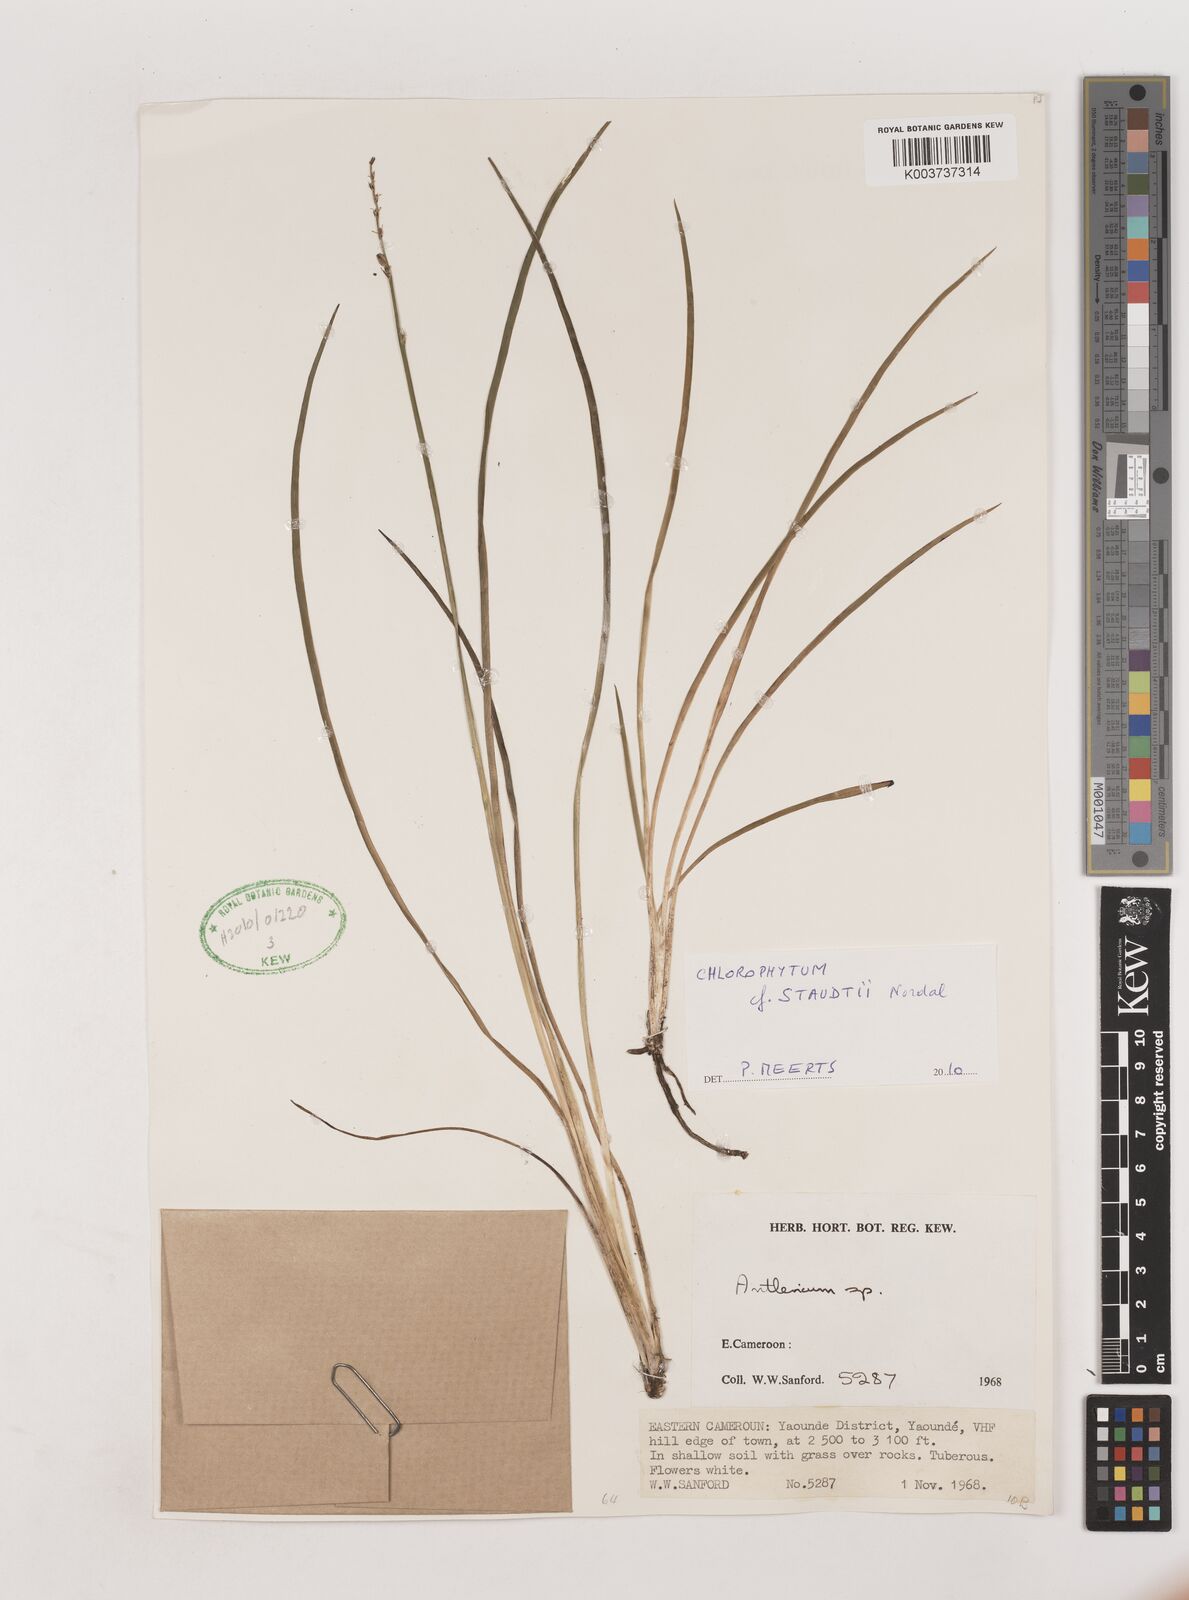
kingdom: Plantae
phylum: Tracheophyta
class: Liliopsida
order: Asparagales
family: Asparagaceae
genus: Chlorophytum
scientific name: Chlorophytum staudtii
